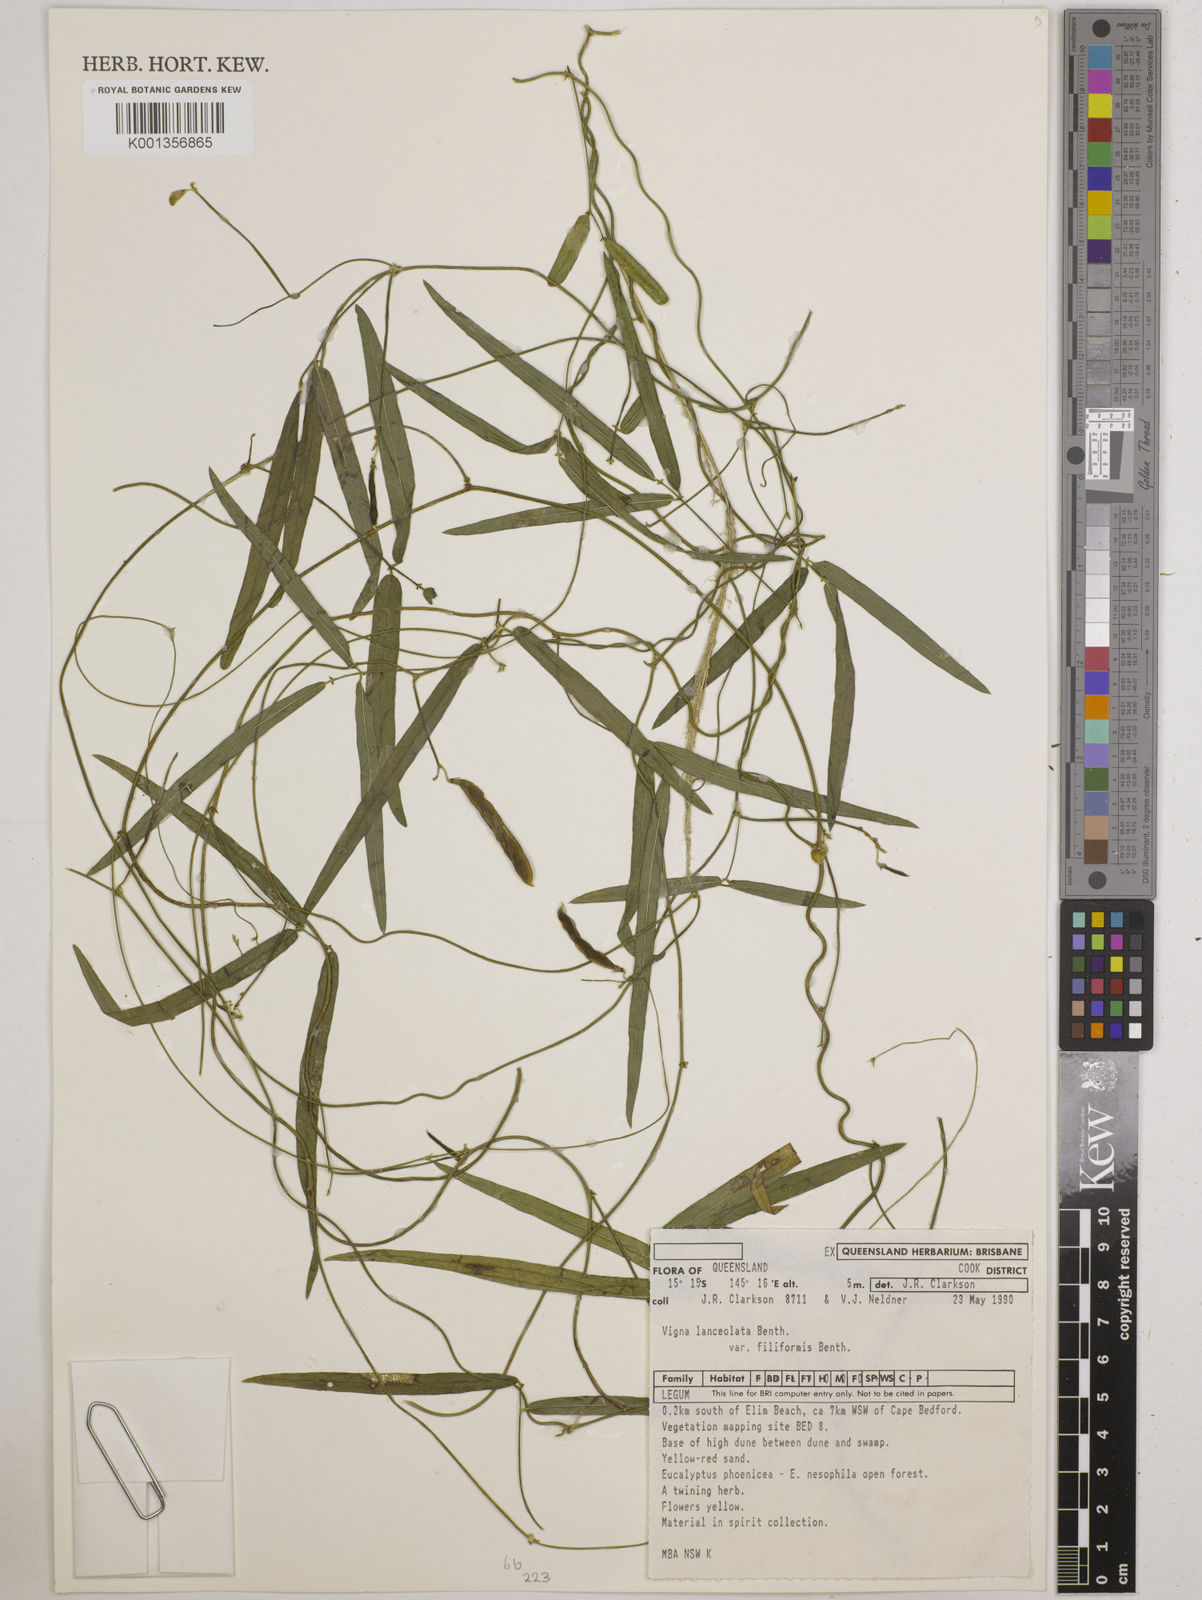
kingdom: Plantae
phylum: Tracheophyta
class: Magnoliopsida
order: Fabales
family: Fabaceae
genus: Vigna
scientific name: Vigna lanceolata
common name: Maloga-bean
